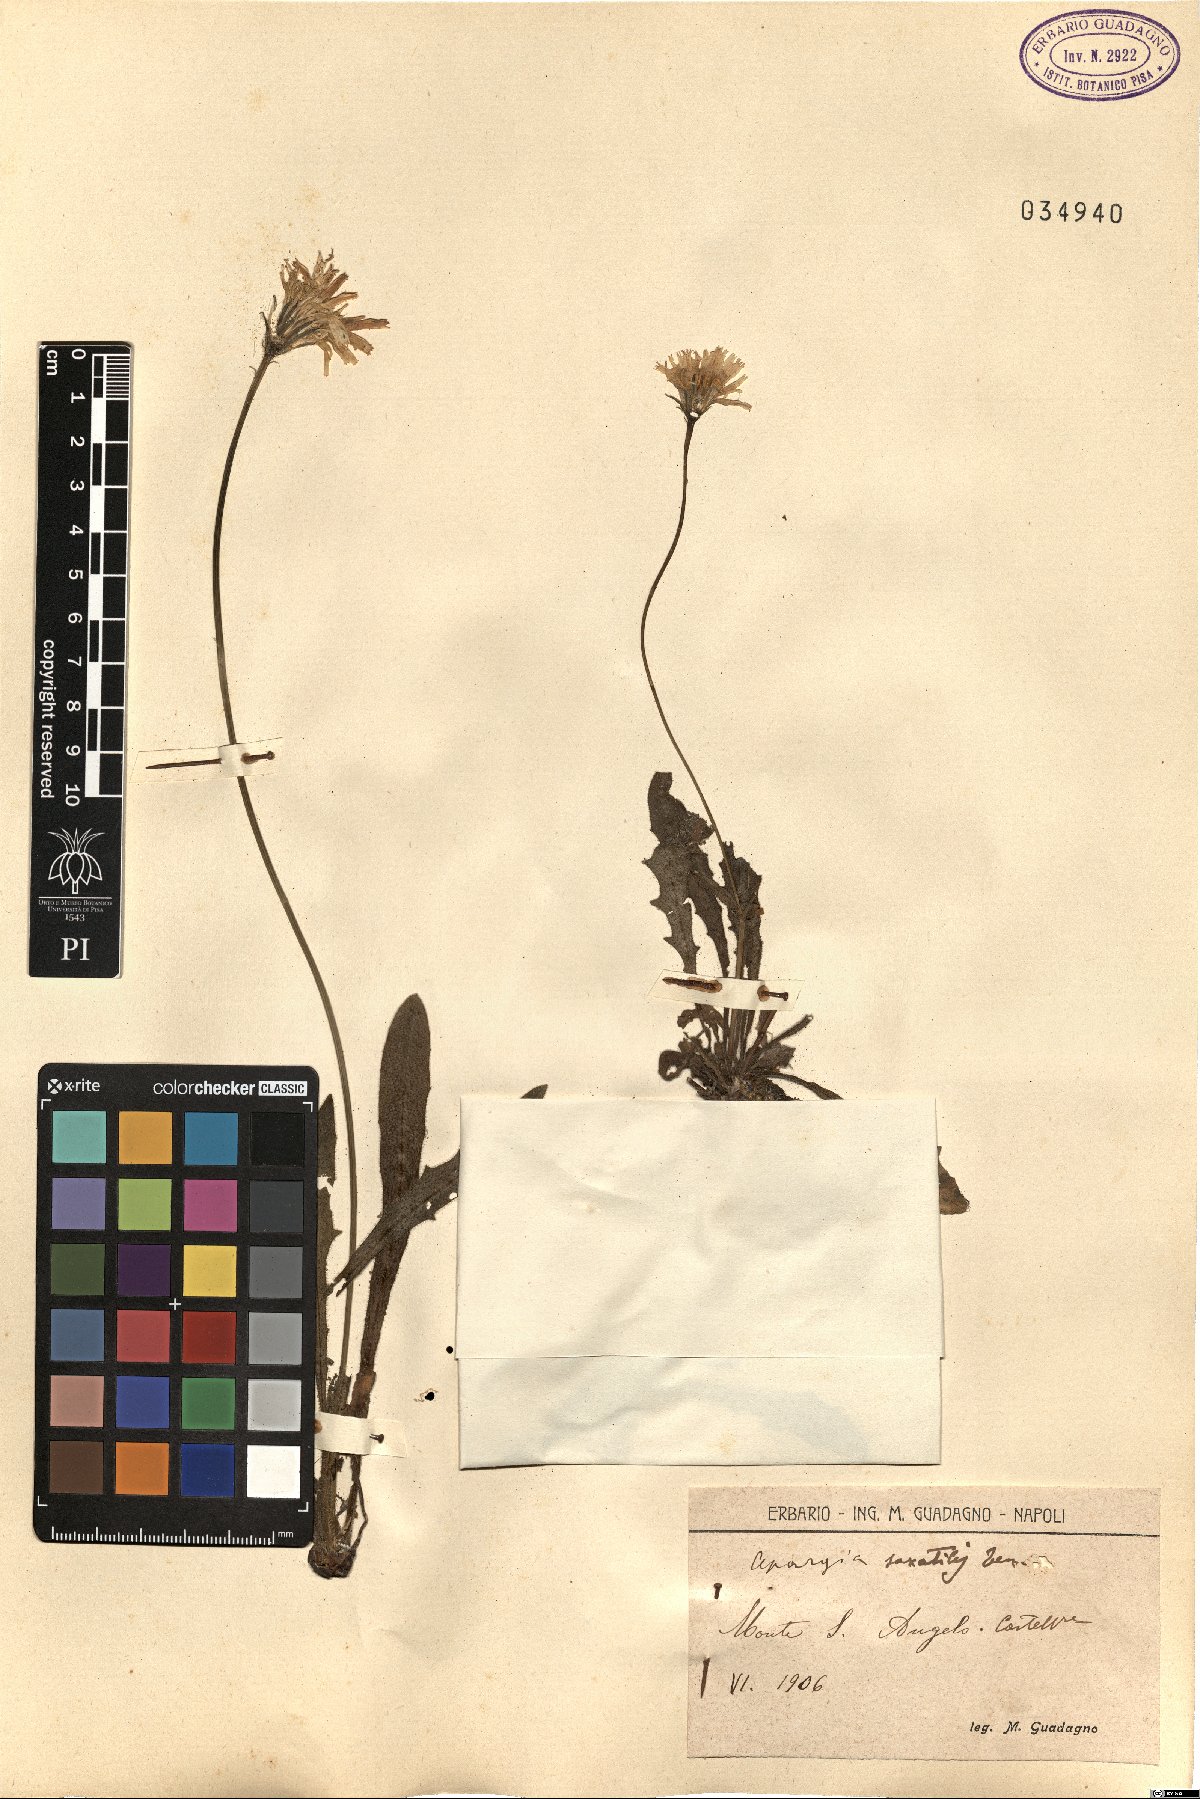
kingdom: Plantae
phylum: Tracheophyta
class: Magnoliopsida
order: Asterales
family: Asteraceae
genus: Leontodon
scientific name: Leontodon crispus
